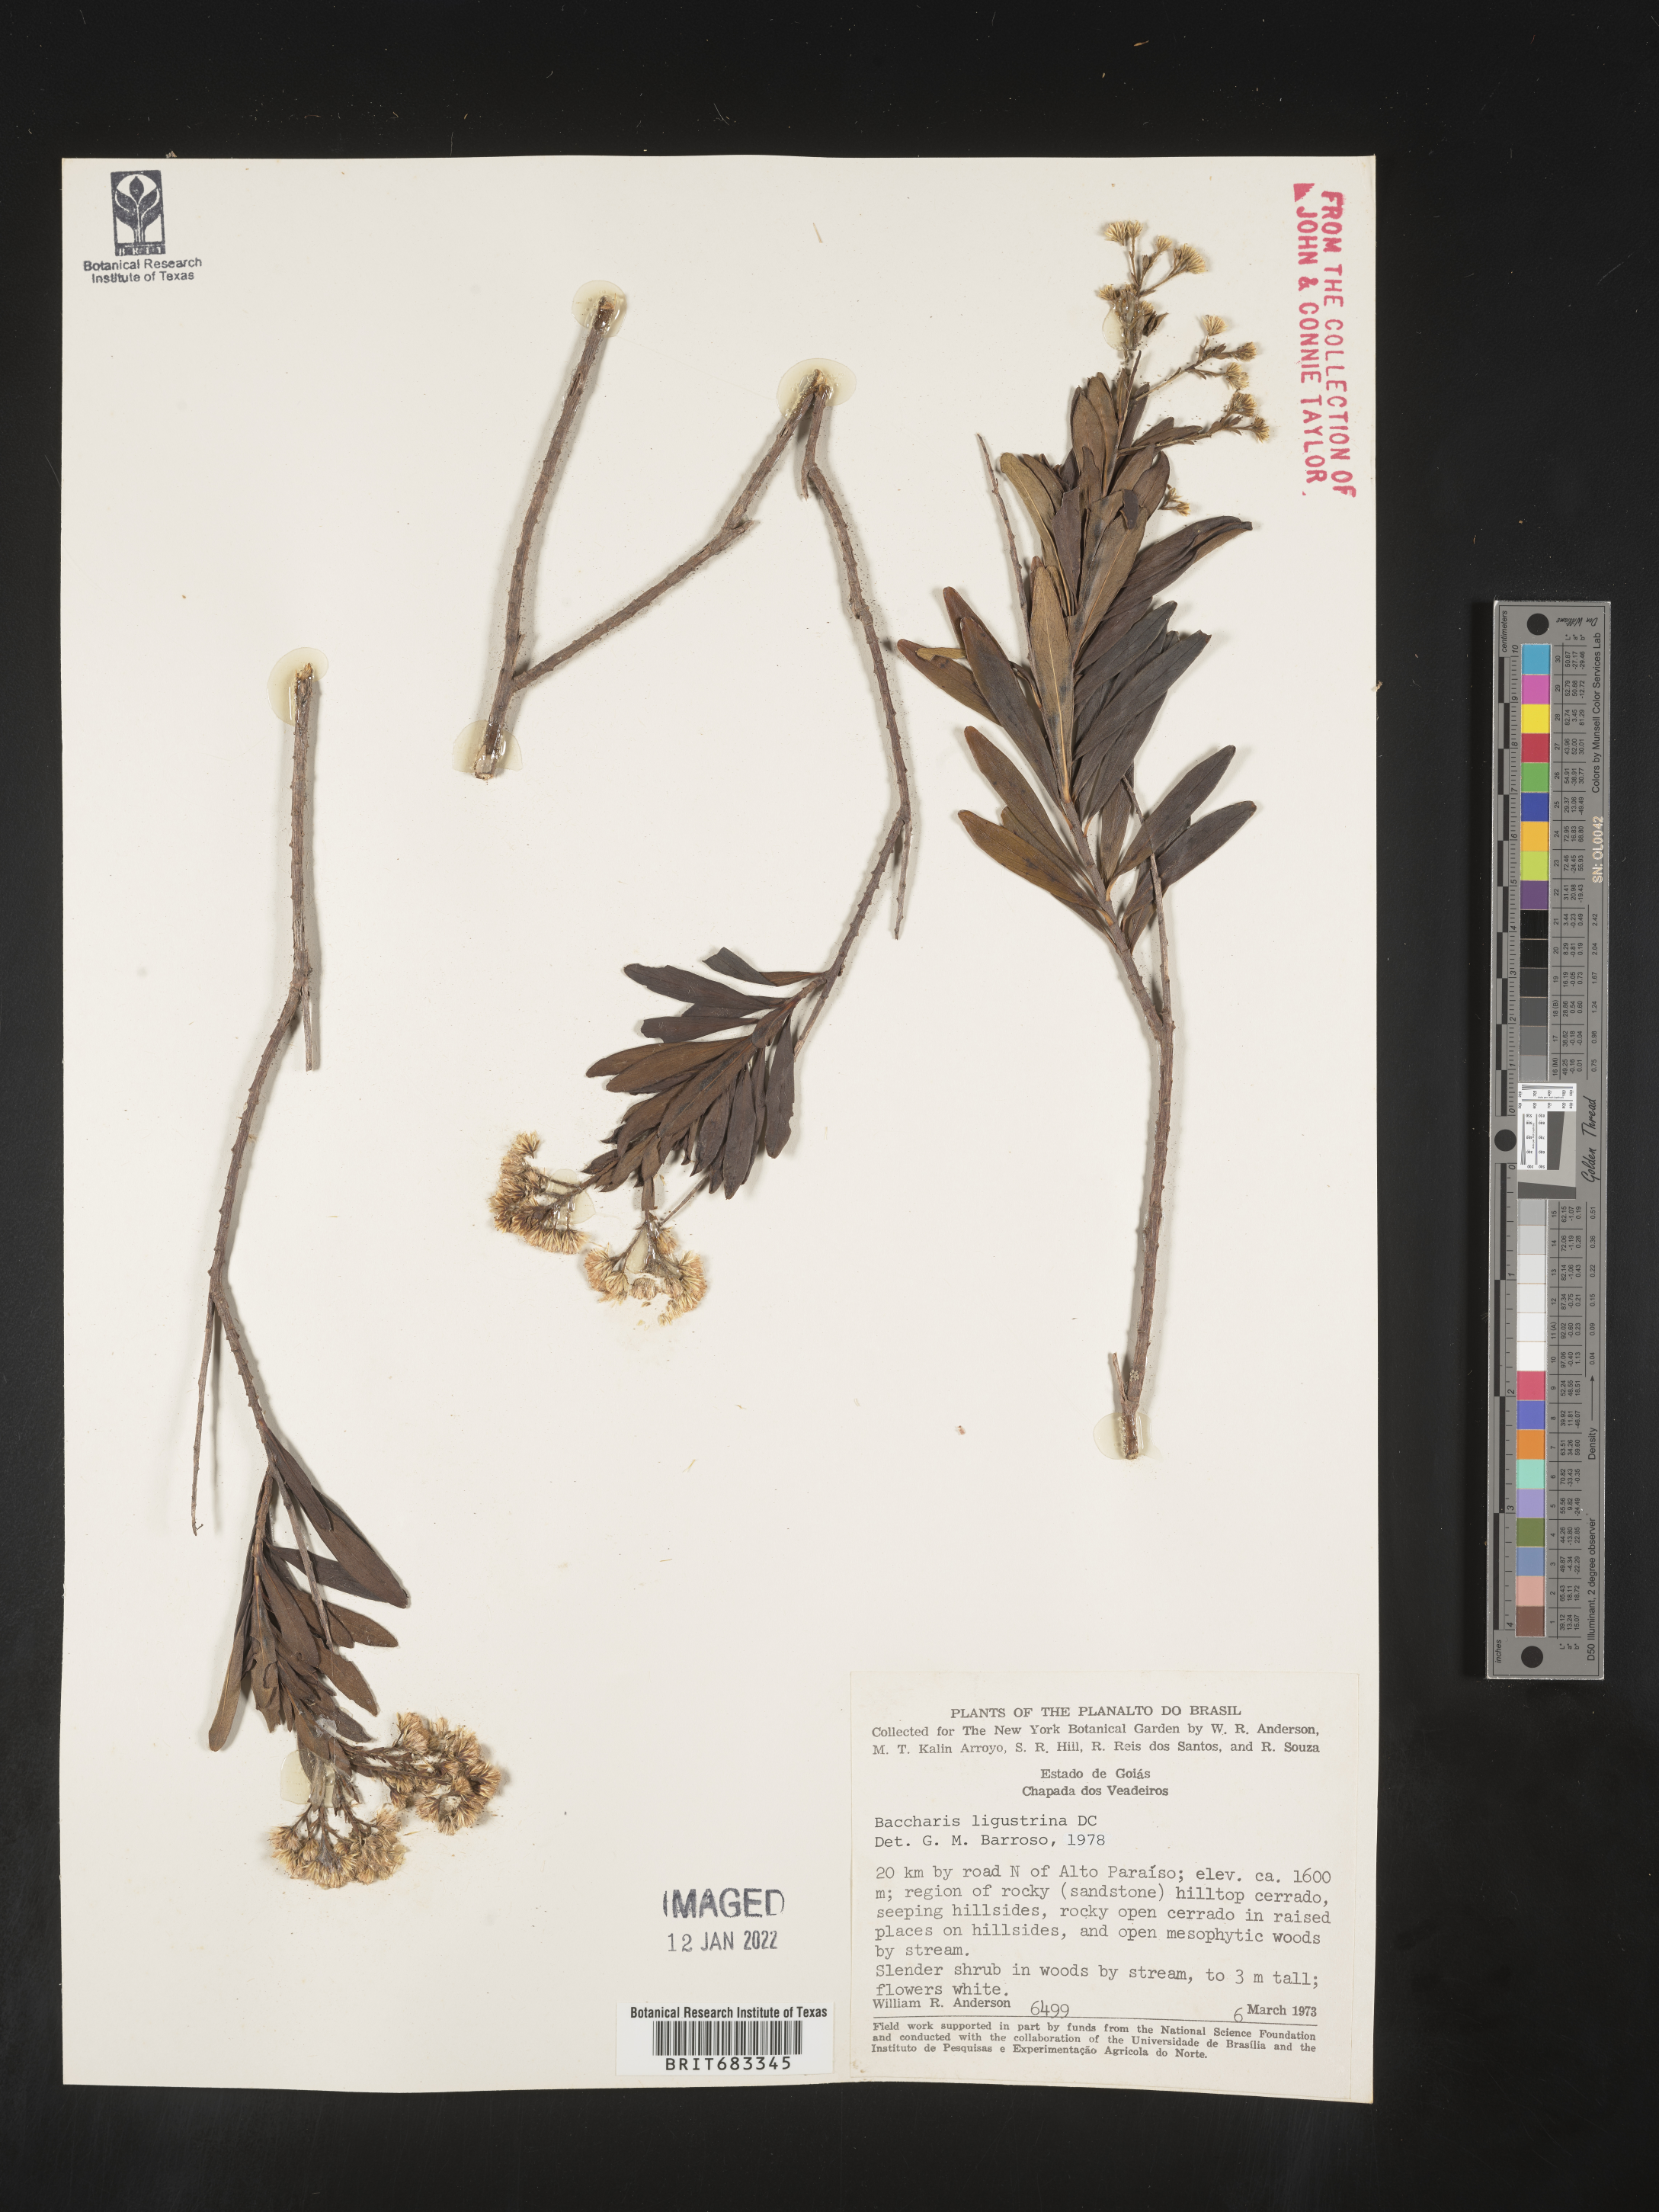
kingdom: Plantae
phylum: Tracheophyta
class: Magnoliopsida
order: Asterales
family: Asteraceae
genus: Baccharis
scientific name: Baccharis
